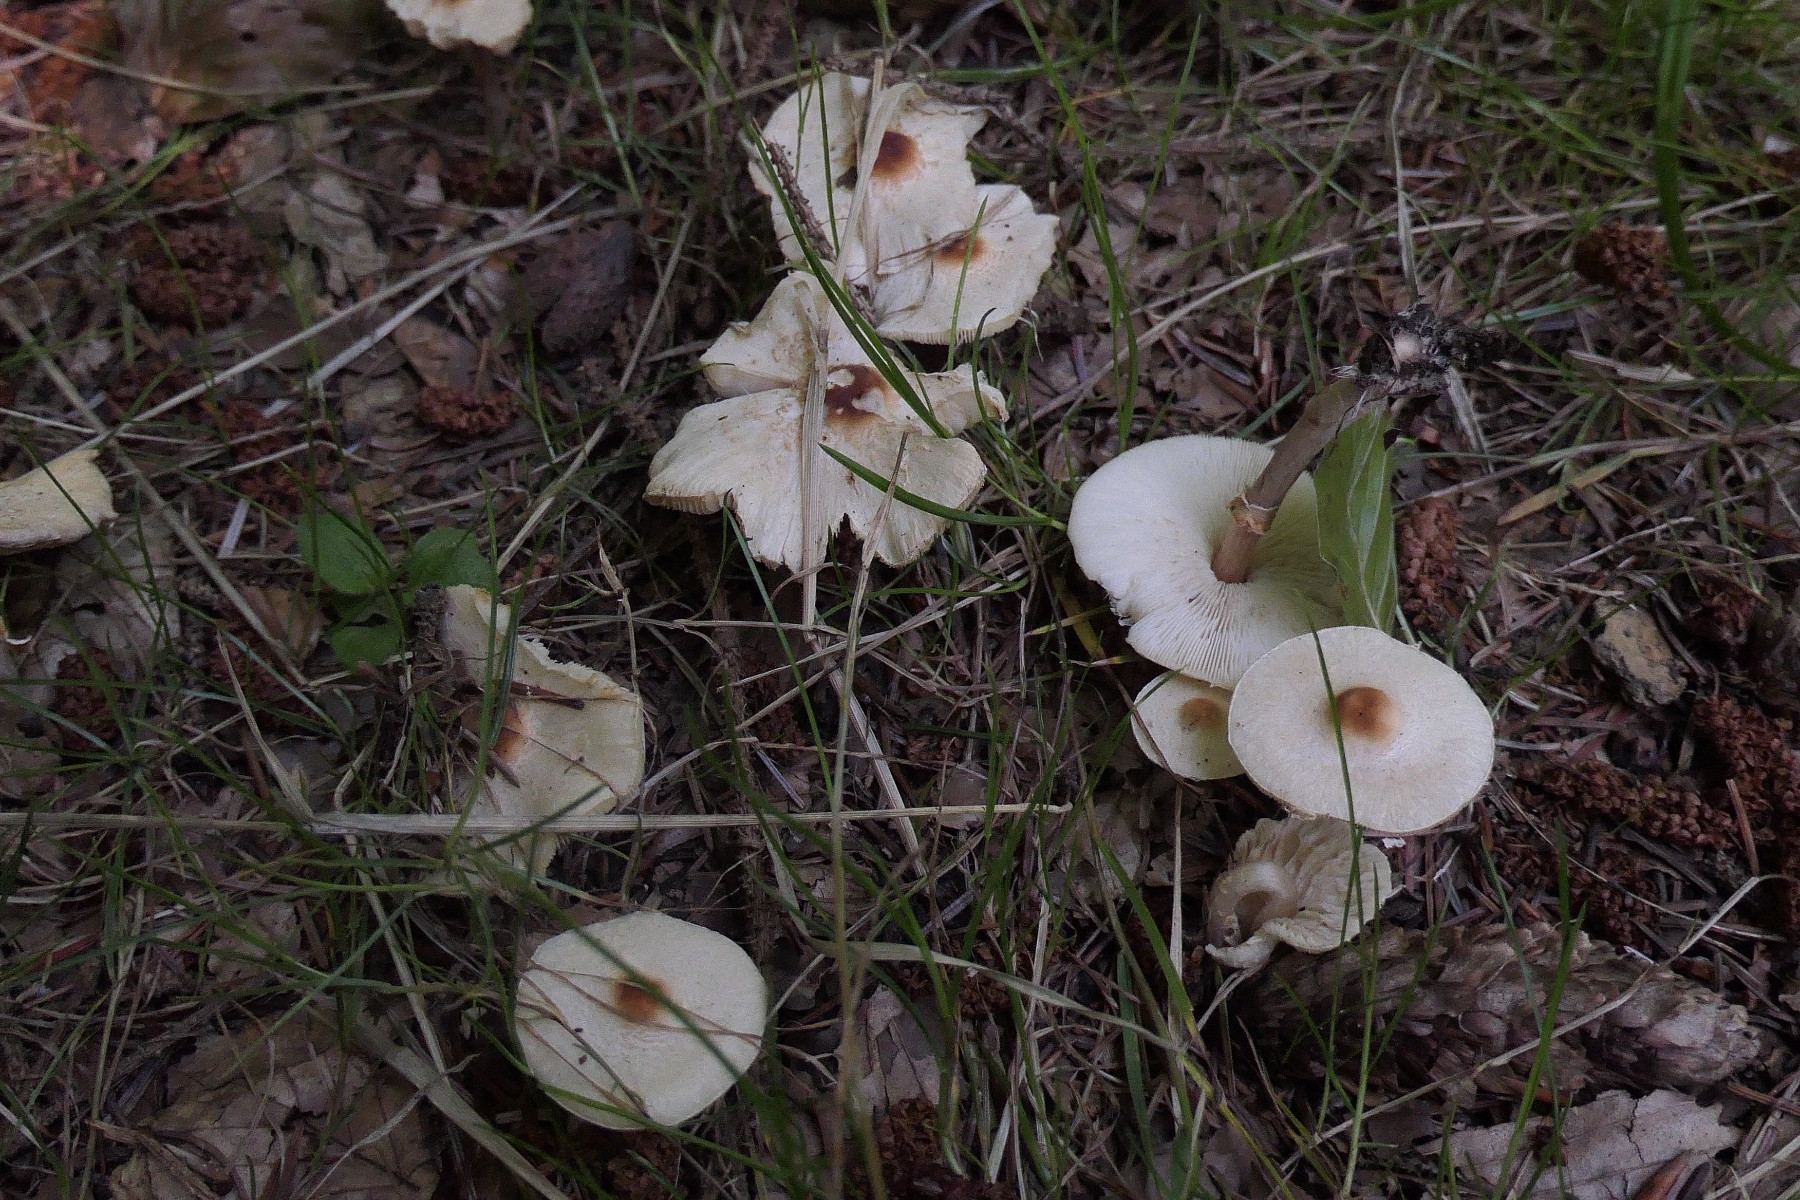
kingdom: Fungi
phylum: Basidiomycota
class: Agaricomycetes
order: Agaricales
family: Agaricaceae
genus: Lepiota
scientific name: Lepiota cristata
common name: stinkende parasolhat
